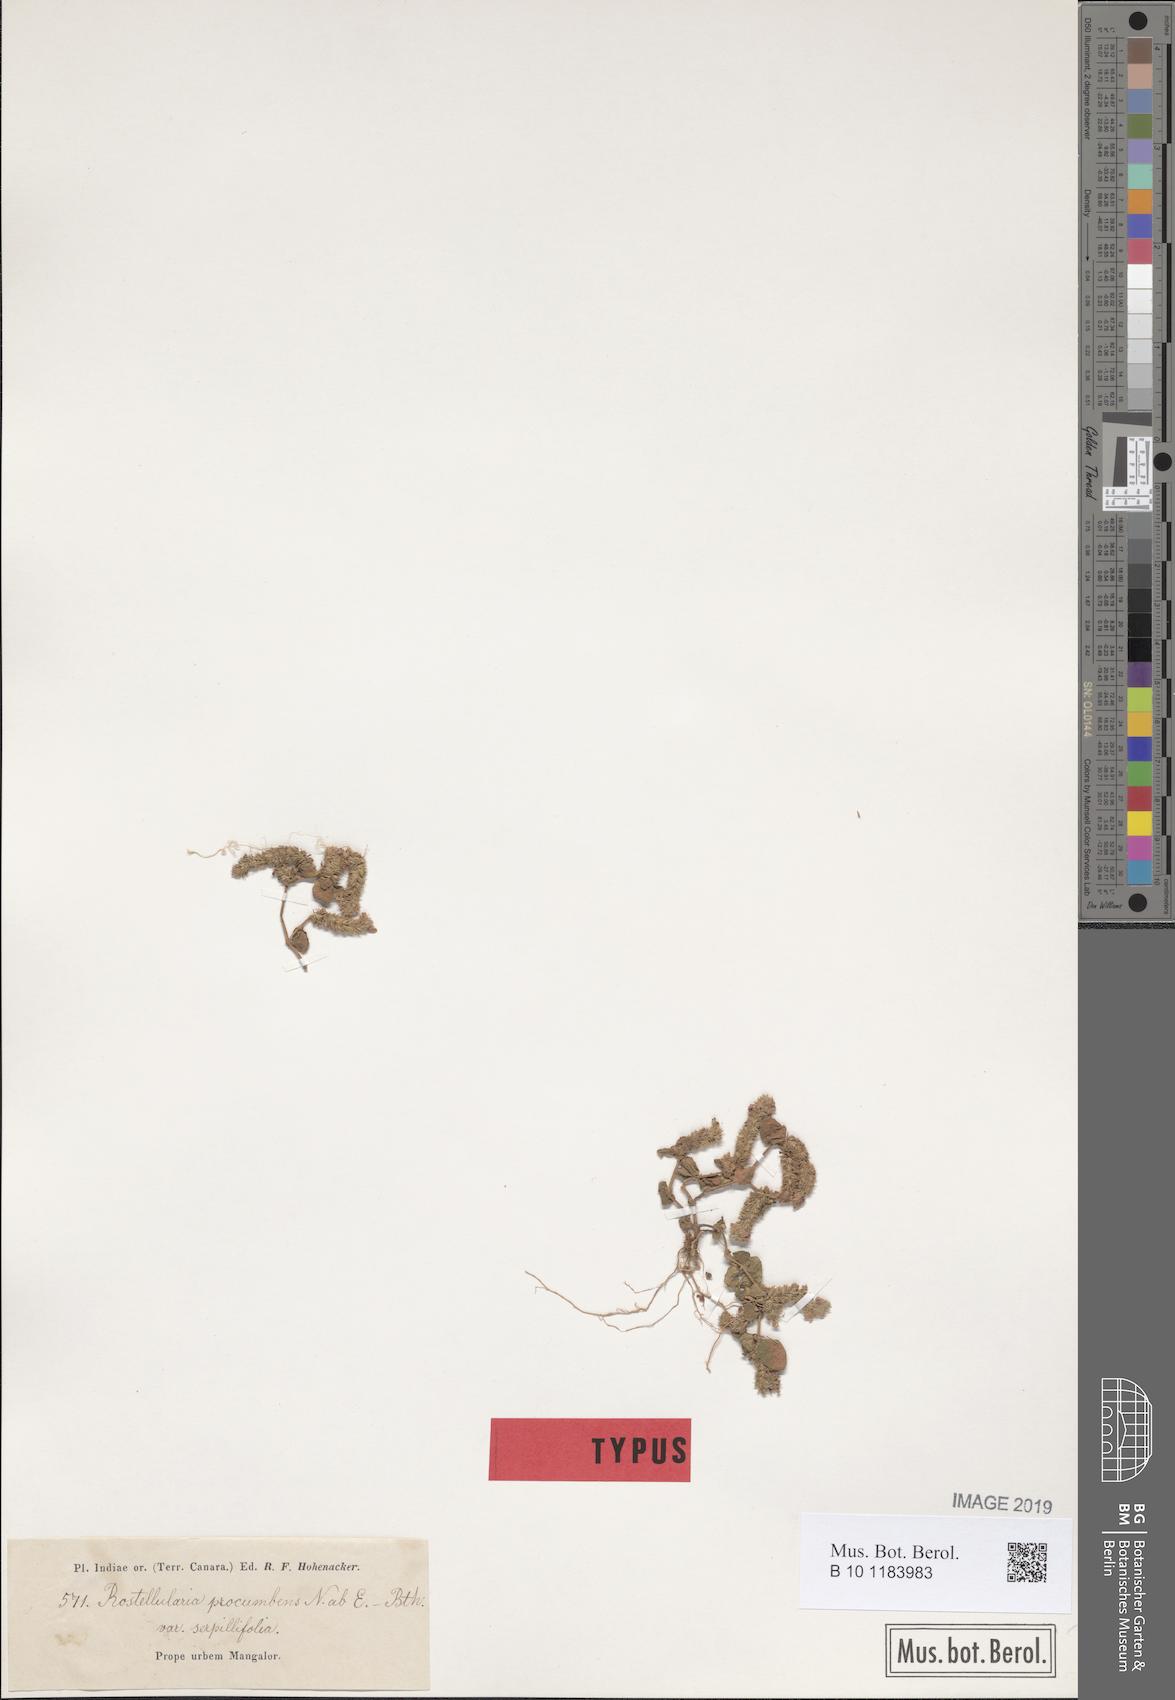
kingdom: Plantae
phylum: Tracheophyta
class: Magnoliopsida
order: Lamiales
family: Acanthaceae
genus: Rostellularia
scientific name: Rostellularia procumbens
